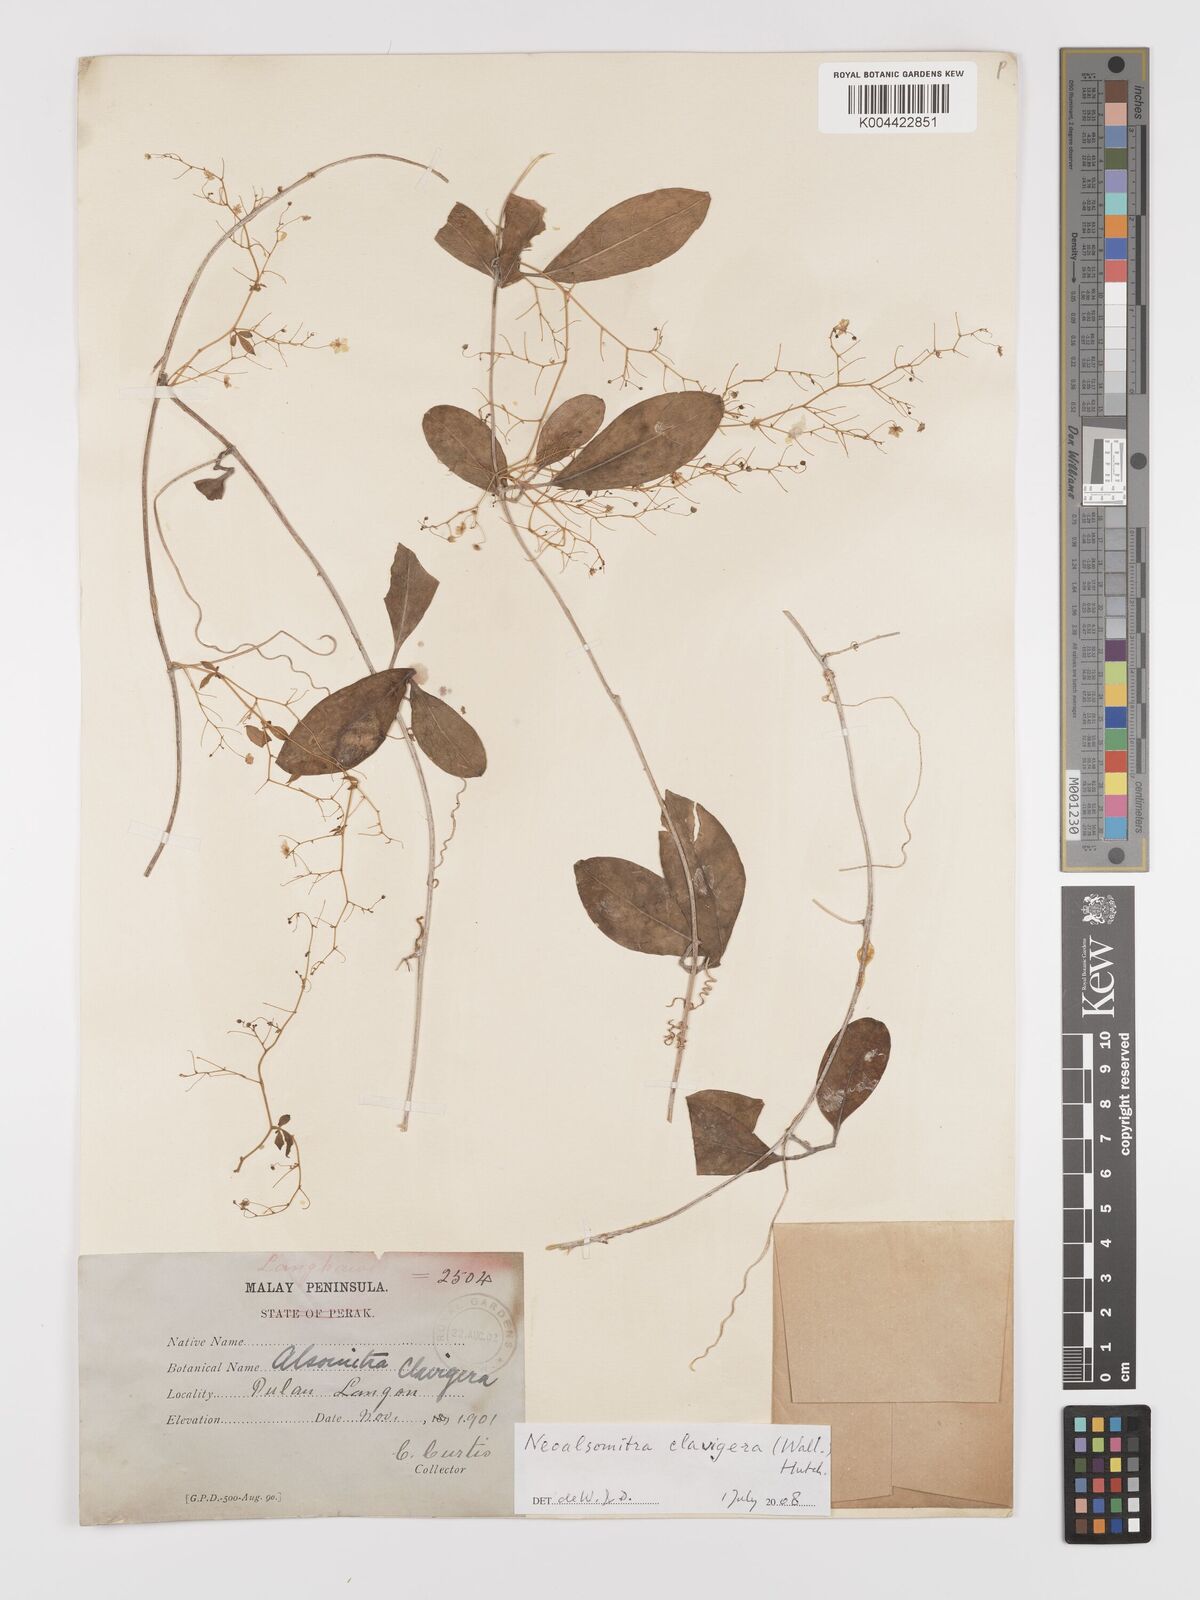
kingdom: Plantae
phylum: Tracheophyta
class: Magnoliopsida
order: Cucurbitales
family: Cucurbitaceae
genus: Neoalsomitra
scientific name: Neoalsomitra clavigera
